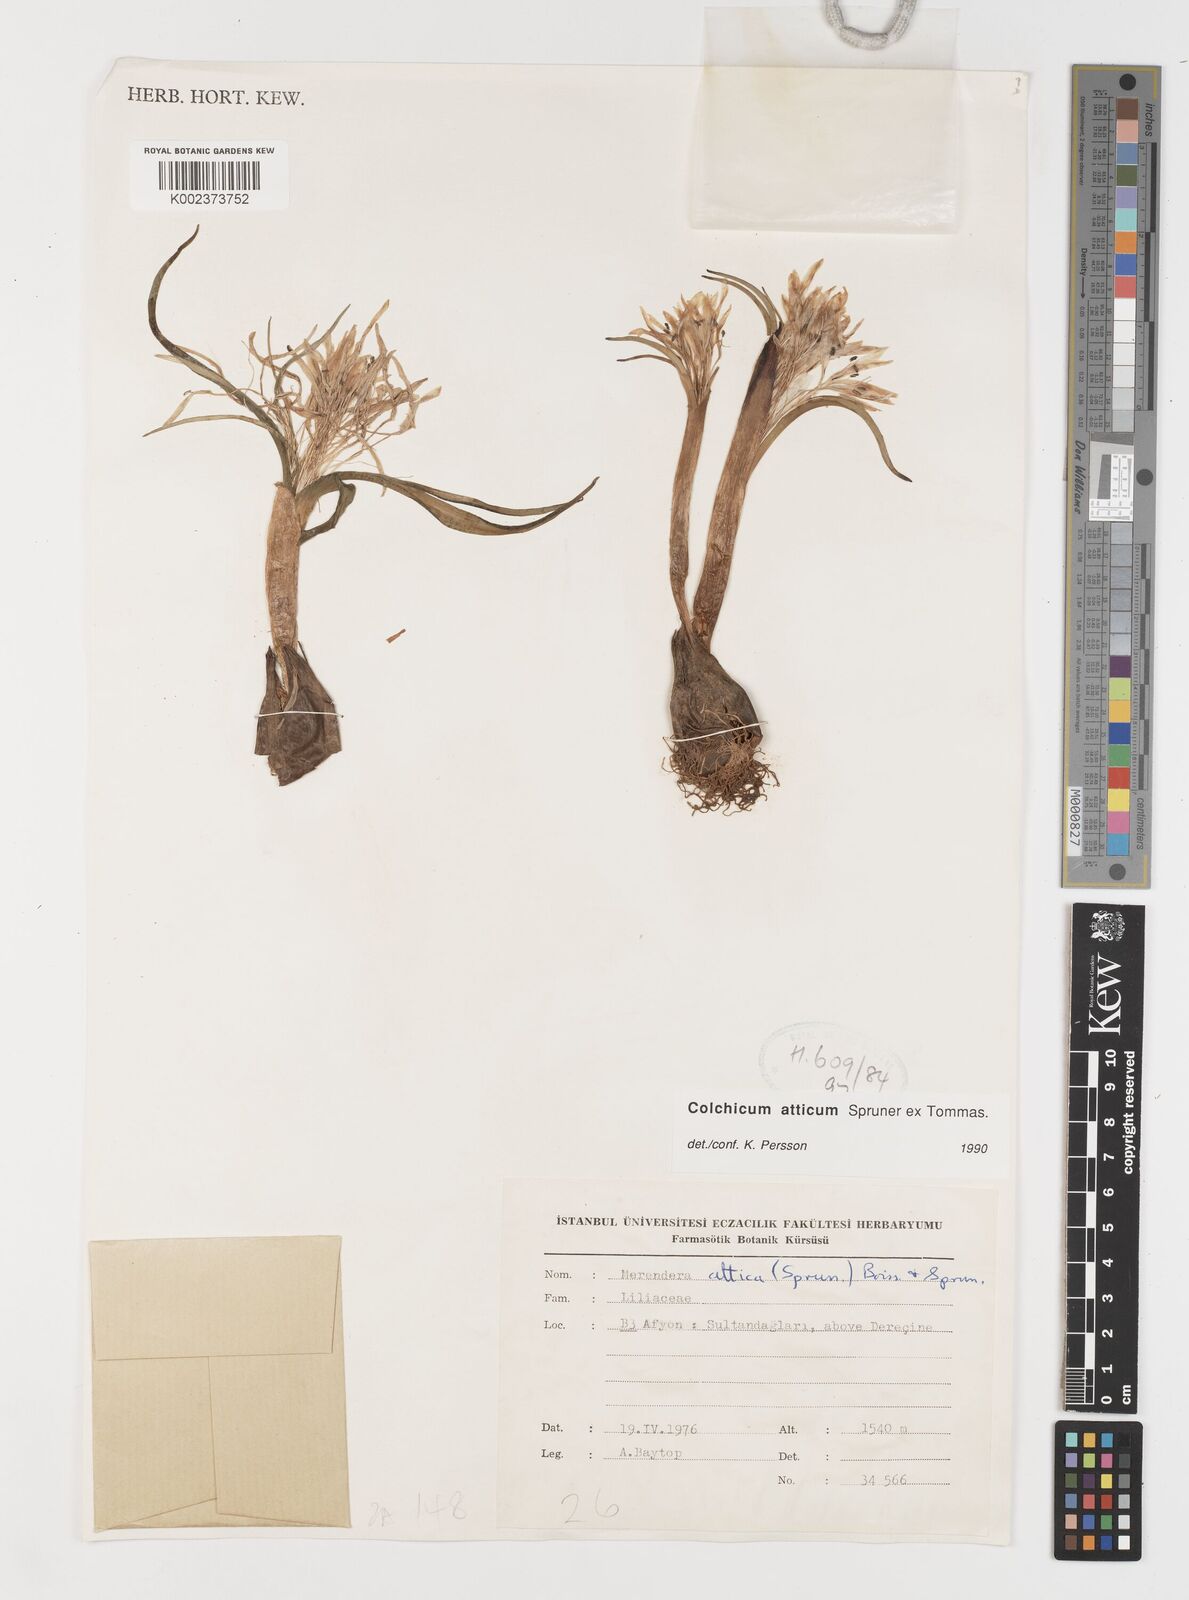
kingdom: Plantae
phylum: Tracheophyta
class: Liliopsida
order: Liliales
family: Colchicaceae
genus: Colchicum
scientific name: Colchicum atticum
